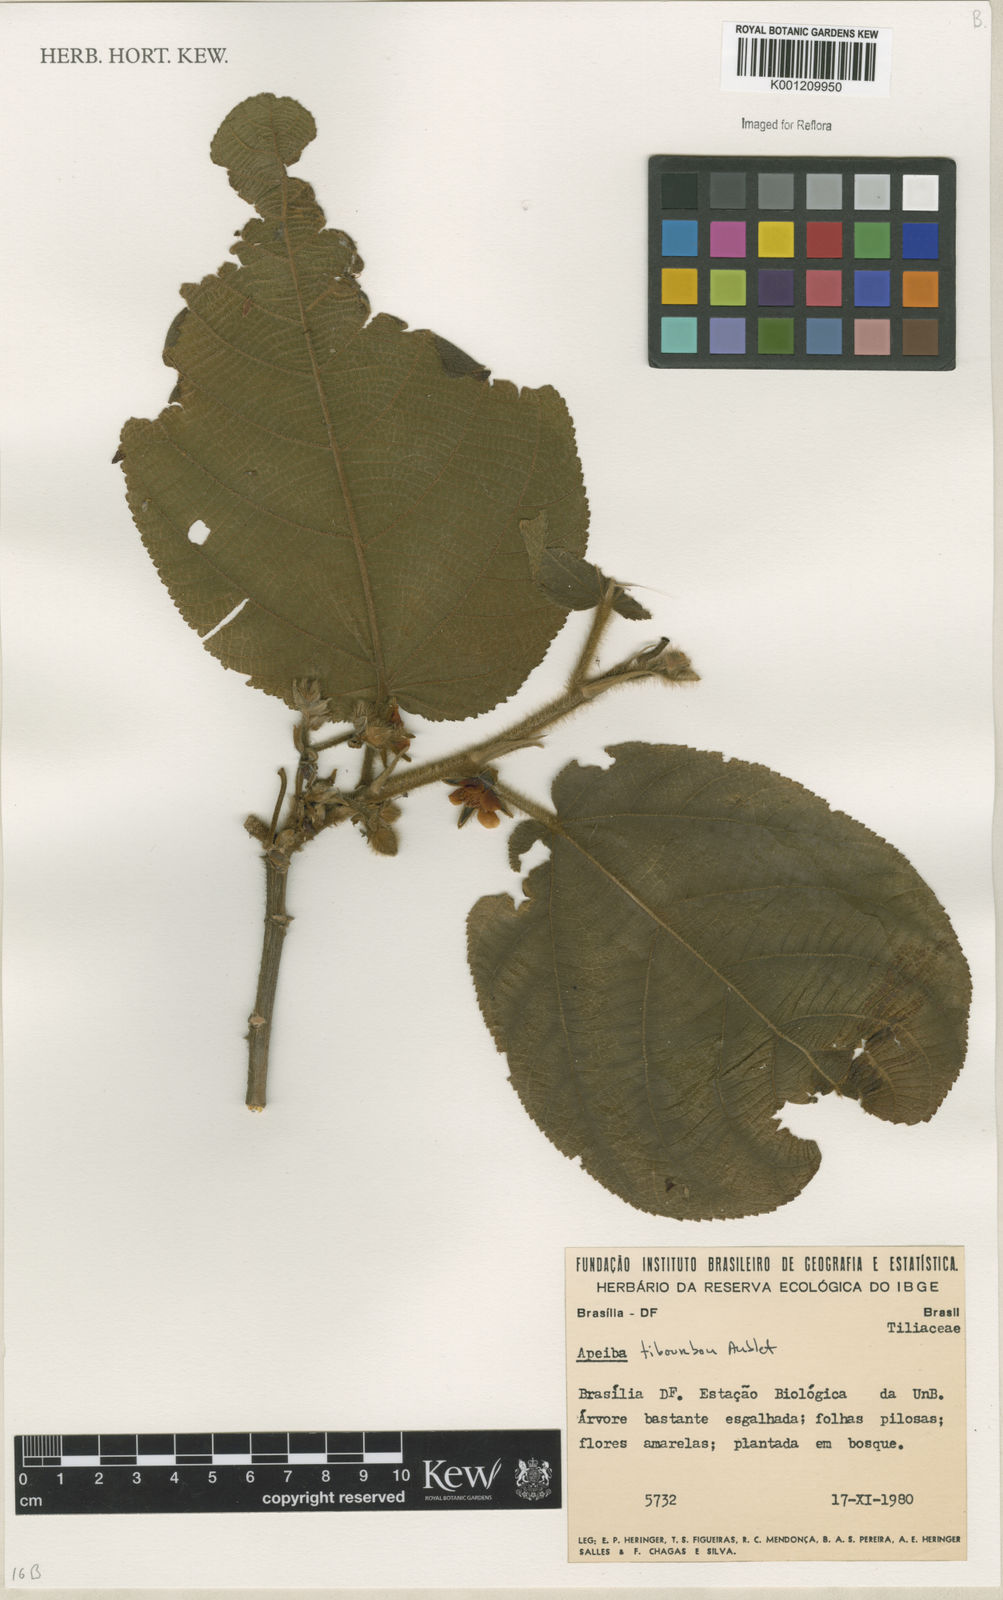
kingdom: Plantae
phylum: Tracheophyta
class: Magnoliopsida
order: Malvales
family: Malvaceae
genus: Apeiba
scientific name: Apeiba tibourbou
